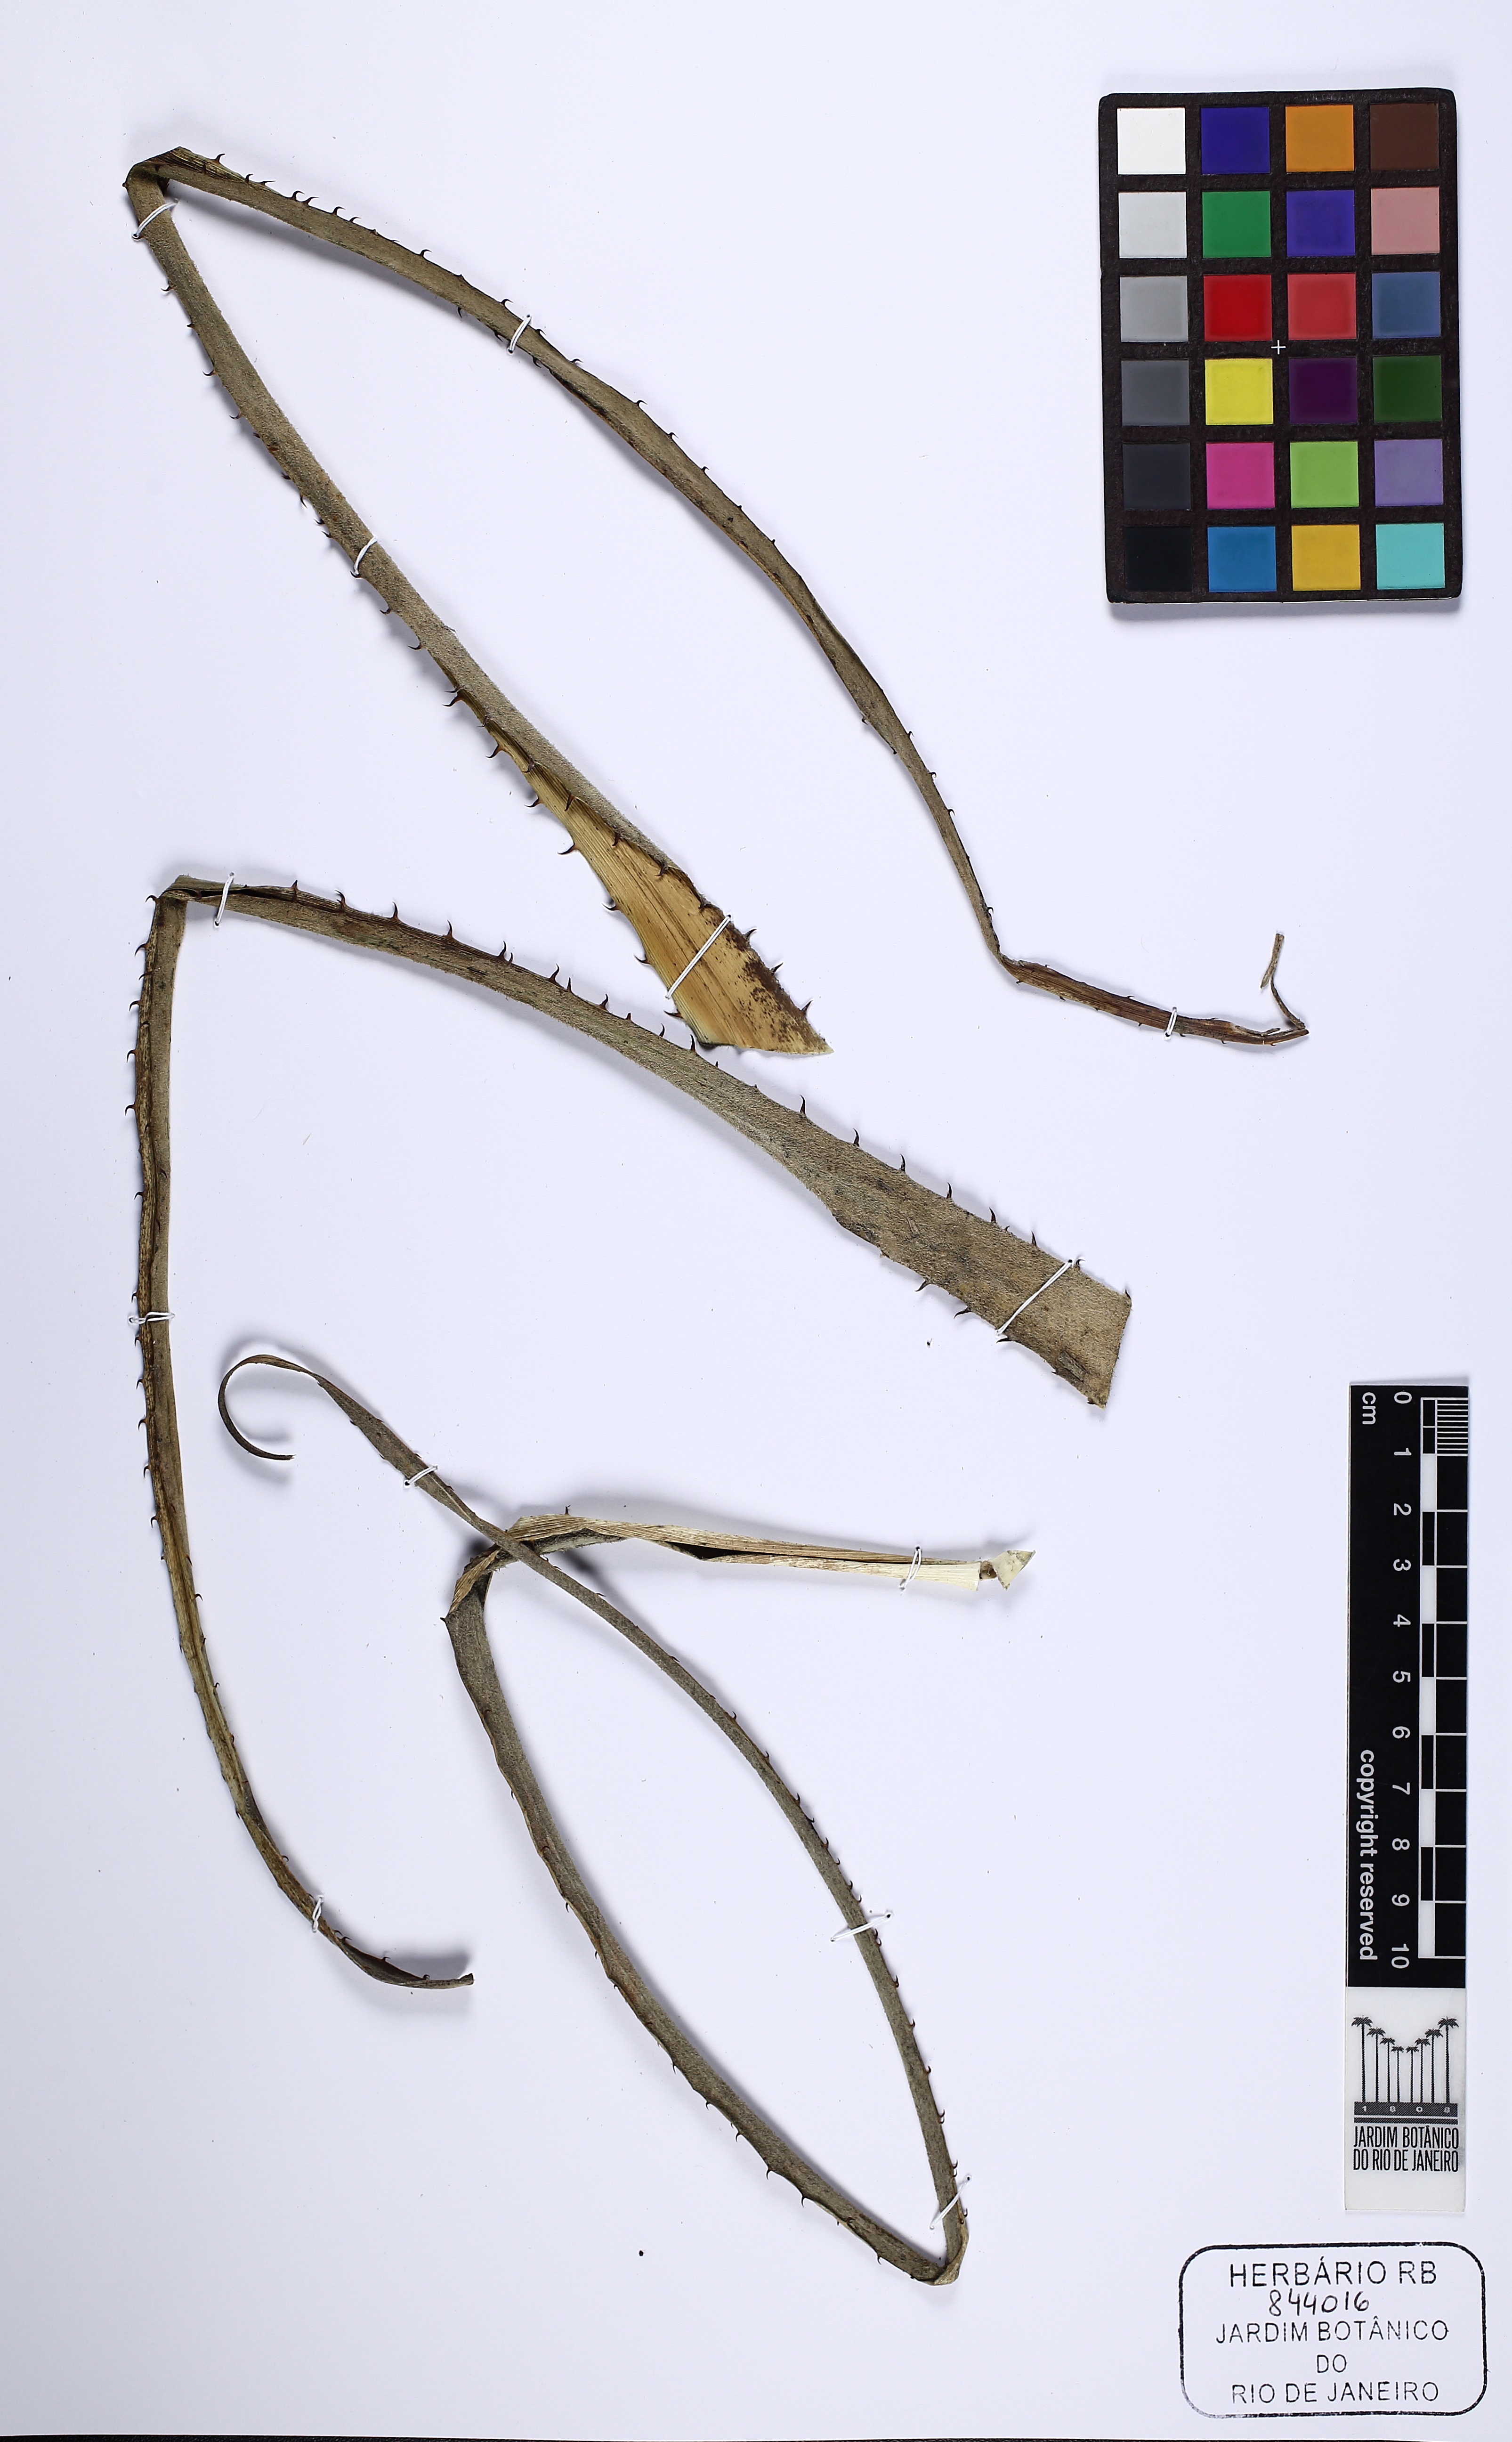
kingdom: Plantae
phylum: Tracheophyta
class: Liliopsida
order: Poales
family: Bromeliaceae
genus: Puya
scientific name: Puya dyckioides
